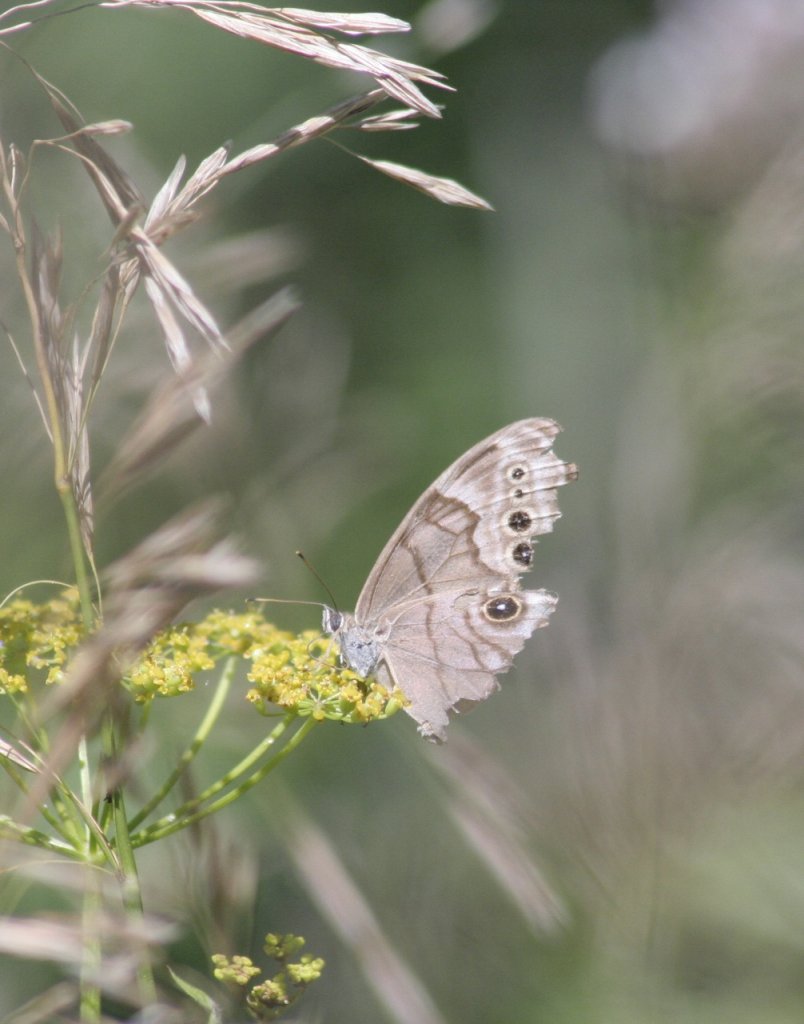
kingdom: Animalia
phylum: Arthropoda
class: Insecta
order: Lepidoptera
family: Nymphalidae
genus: Lethe
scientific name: Lethe anthedon
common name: Northern Pearly-Eye
